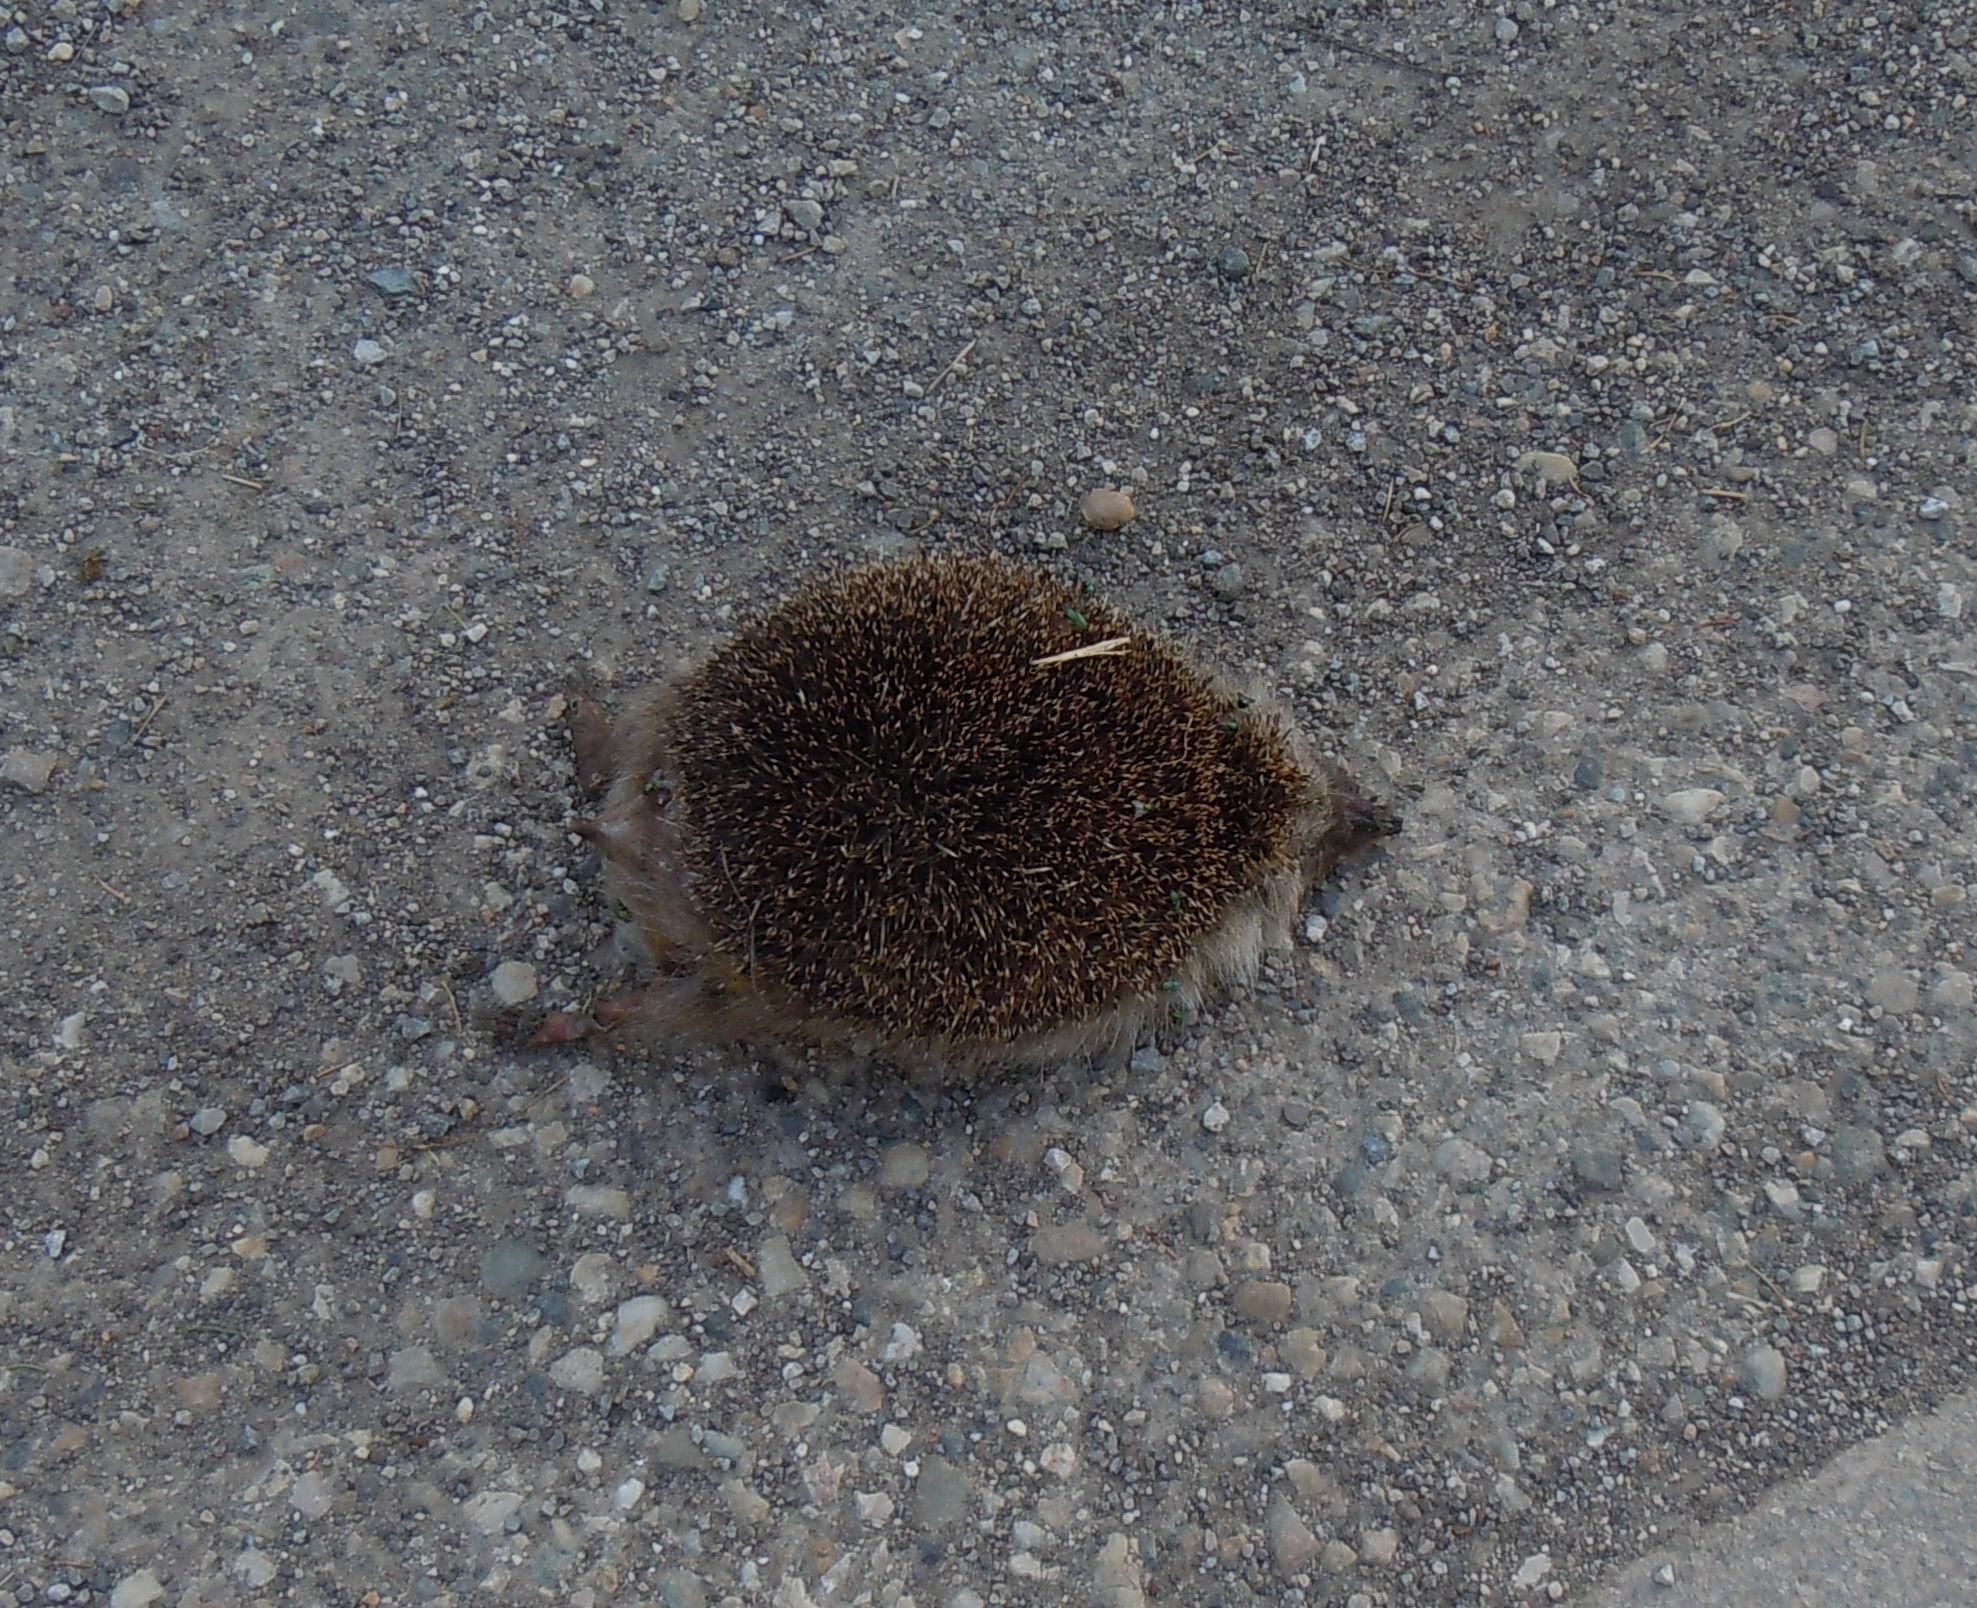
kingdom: Animalia
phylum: Chordata
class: Mammalia
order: Erinaceomorpha
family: Erinaceidae
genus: Erinaceus
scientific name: Erinaceus
